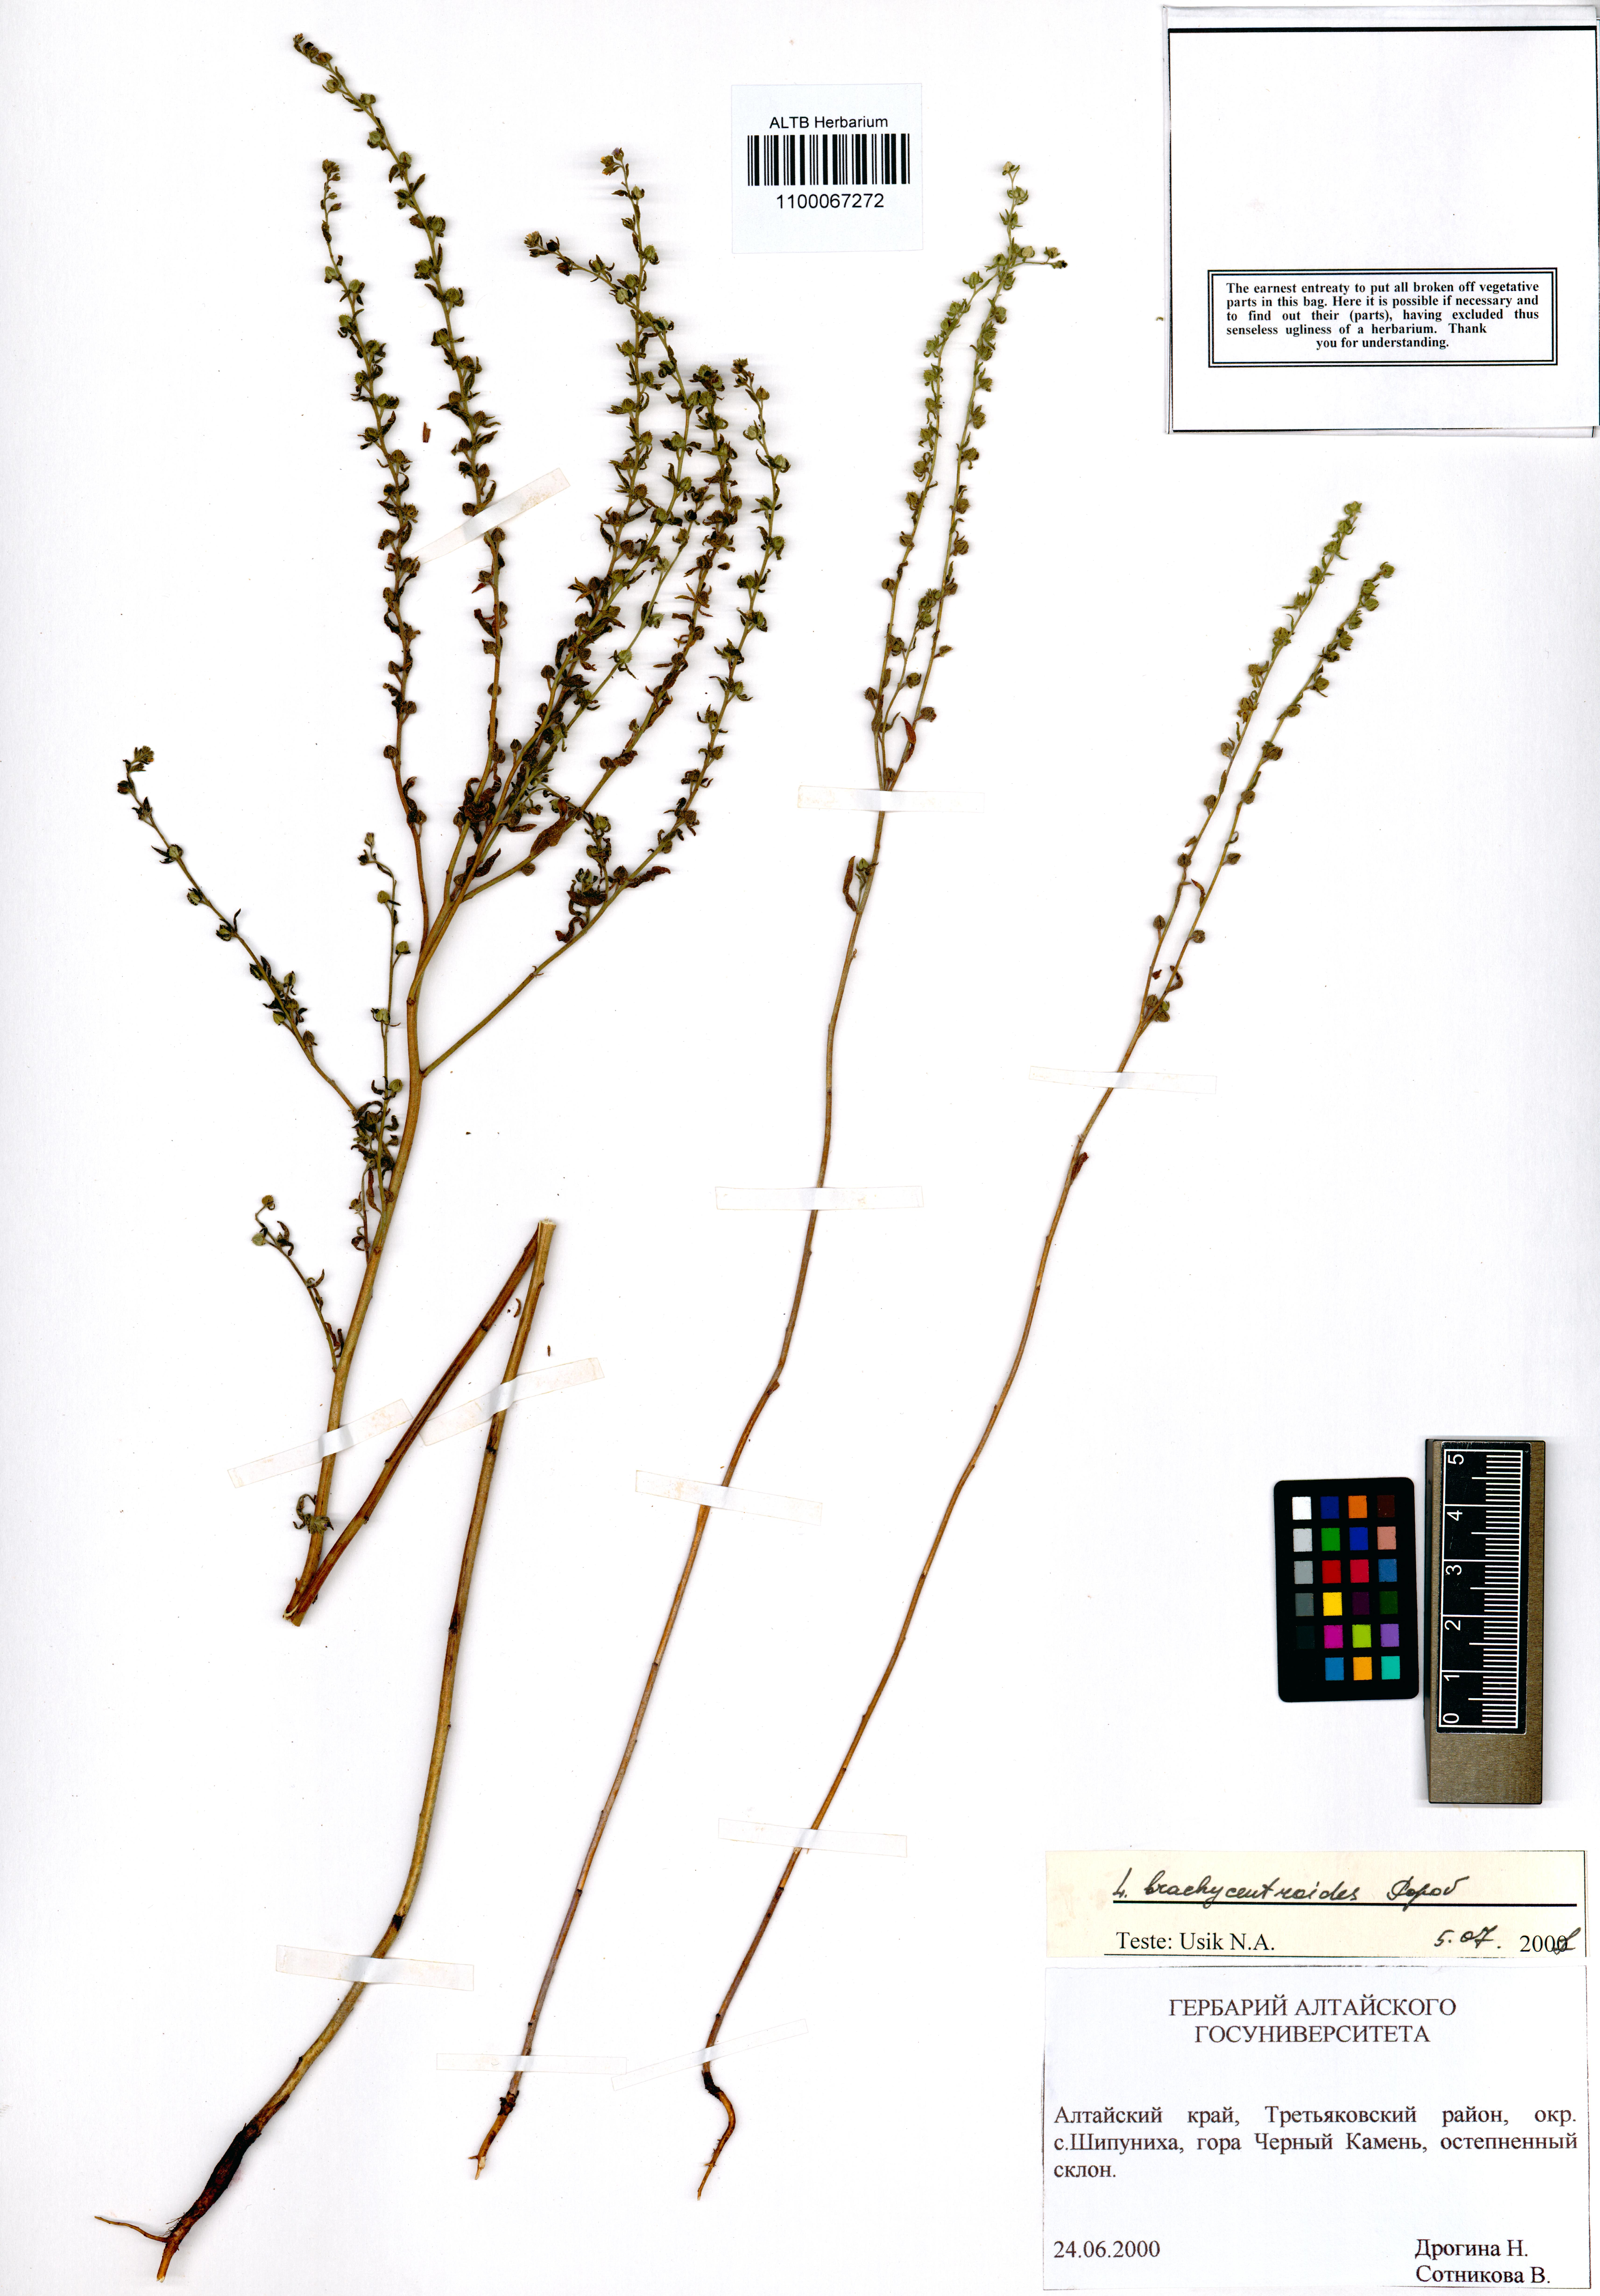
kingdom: Plantae
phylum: Tracheophyta
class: Magnoliopsida
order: Boraginales
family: Boraginaceae
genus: Lappula
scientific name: Lappula brachycentroides
